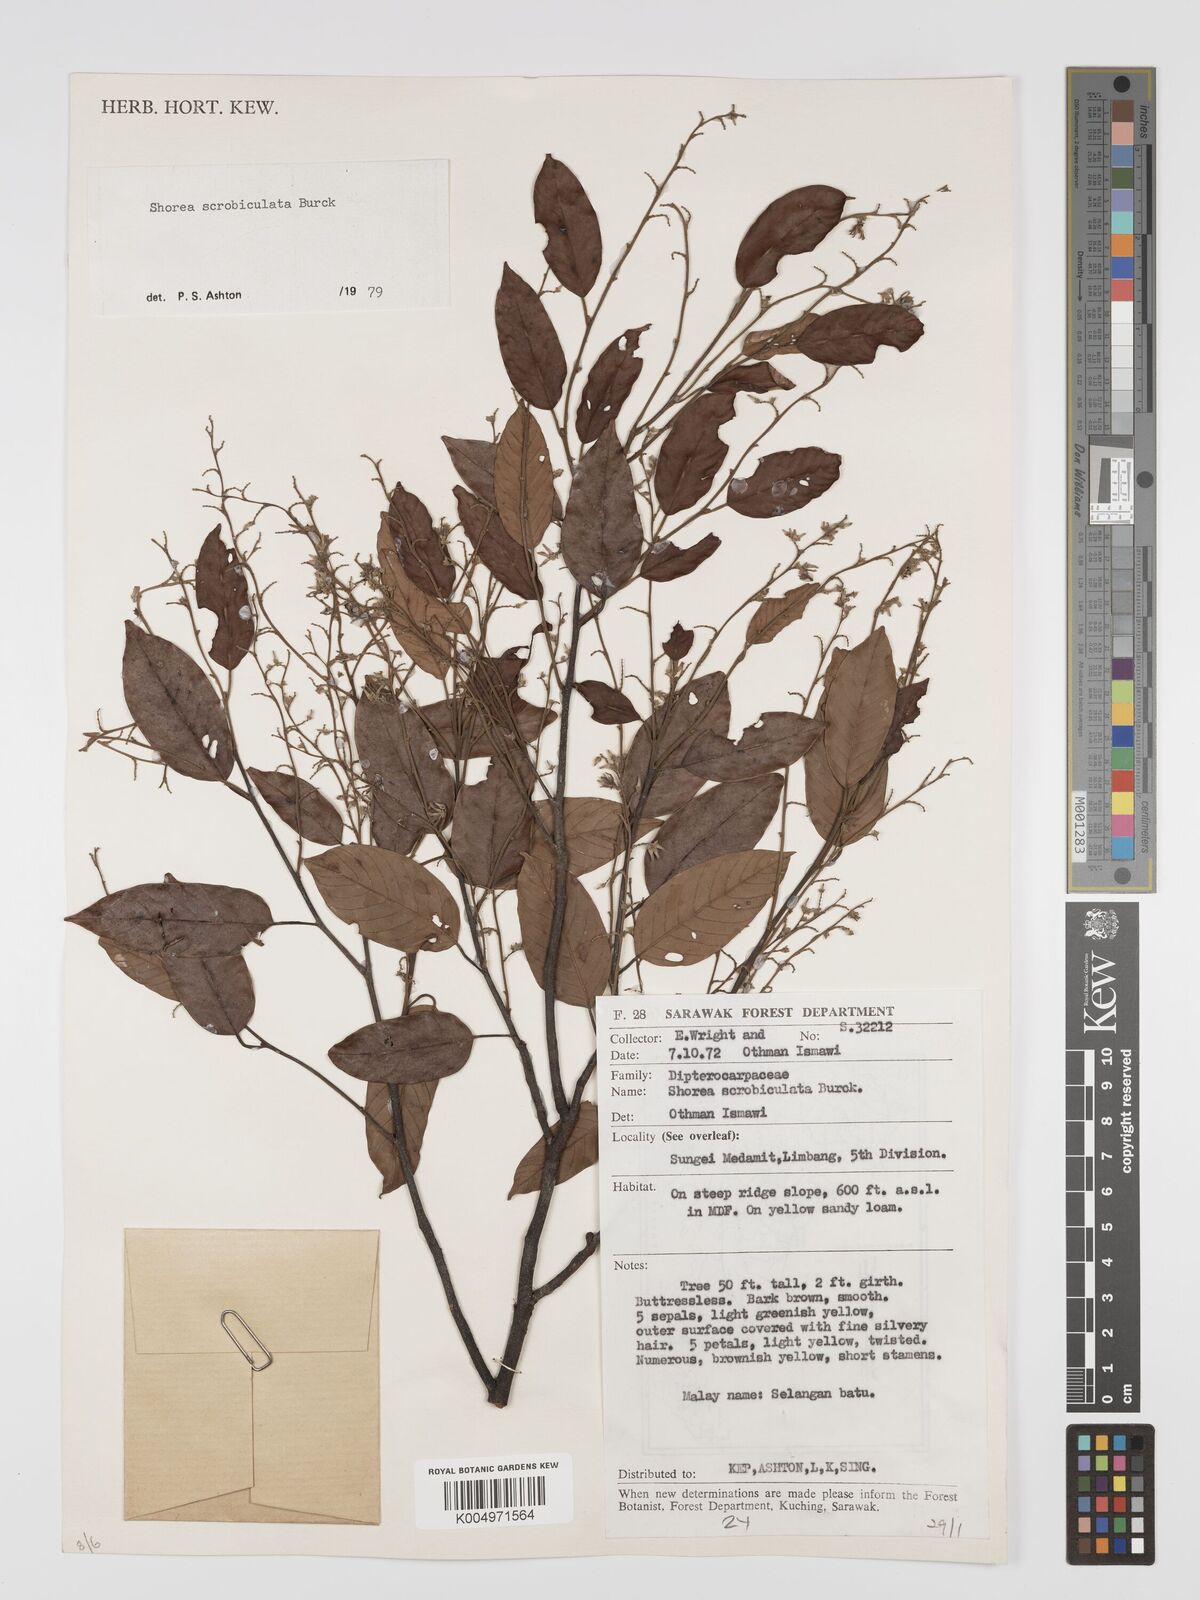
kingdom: Plantae
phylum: Tracheophyta
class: Magnoliopsida
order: Malvales
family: Dipterocarpaceae
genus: Shorea
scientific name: Shorea scrobiculata
